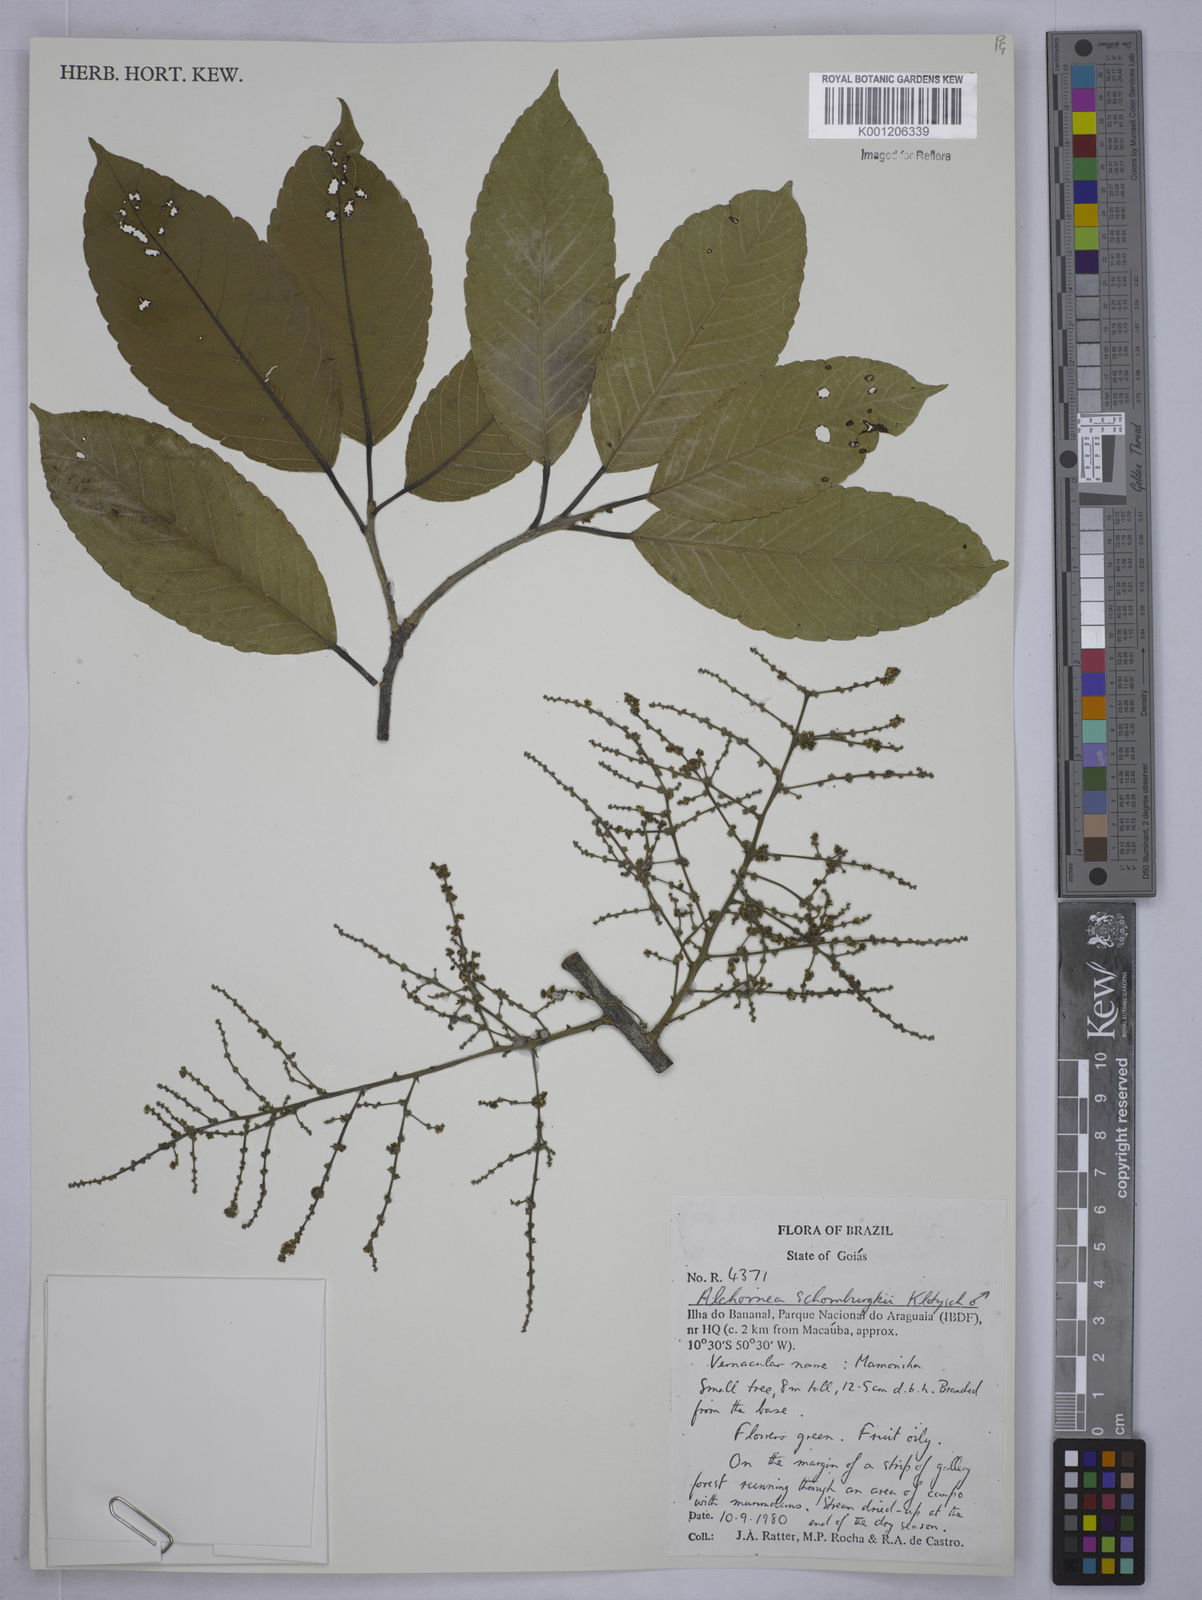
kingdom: Plantae
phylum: Tracheophyta
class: Magnoliopsida
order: Malpighiales
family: Euphorbiaceae
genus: Alchornea
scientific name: Alchornea discolor
